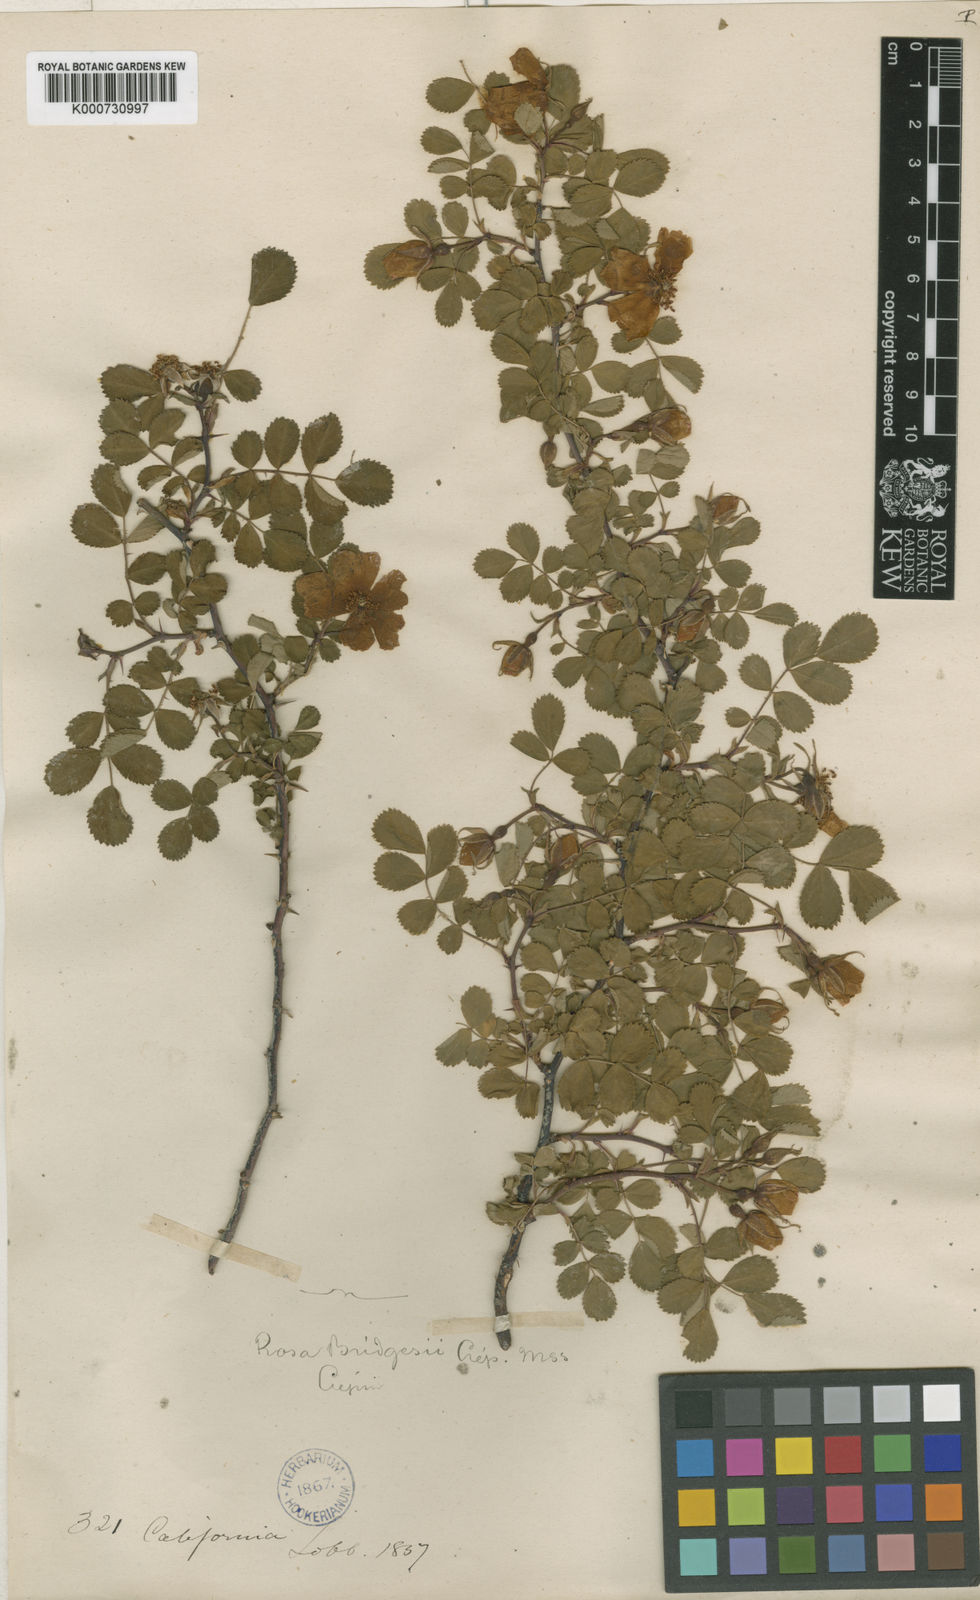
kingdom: Plantae
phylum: Tracheophyta
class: Magnoliopsida
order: Rosales
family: Rosaceae
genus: Rosa
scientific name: Rosa
